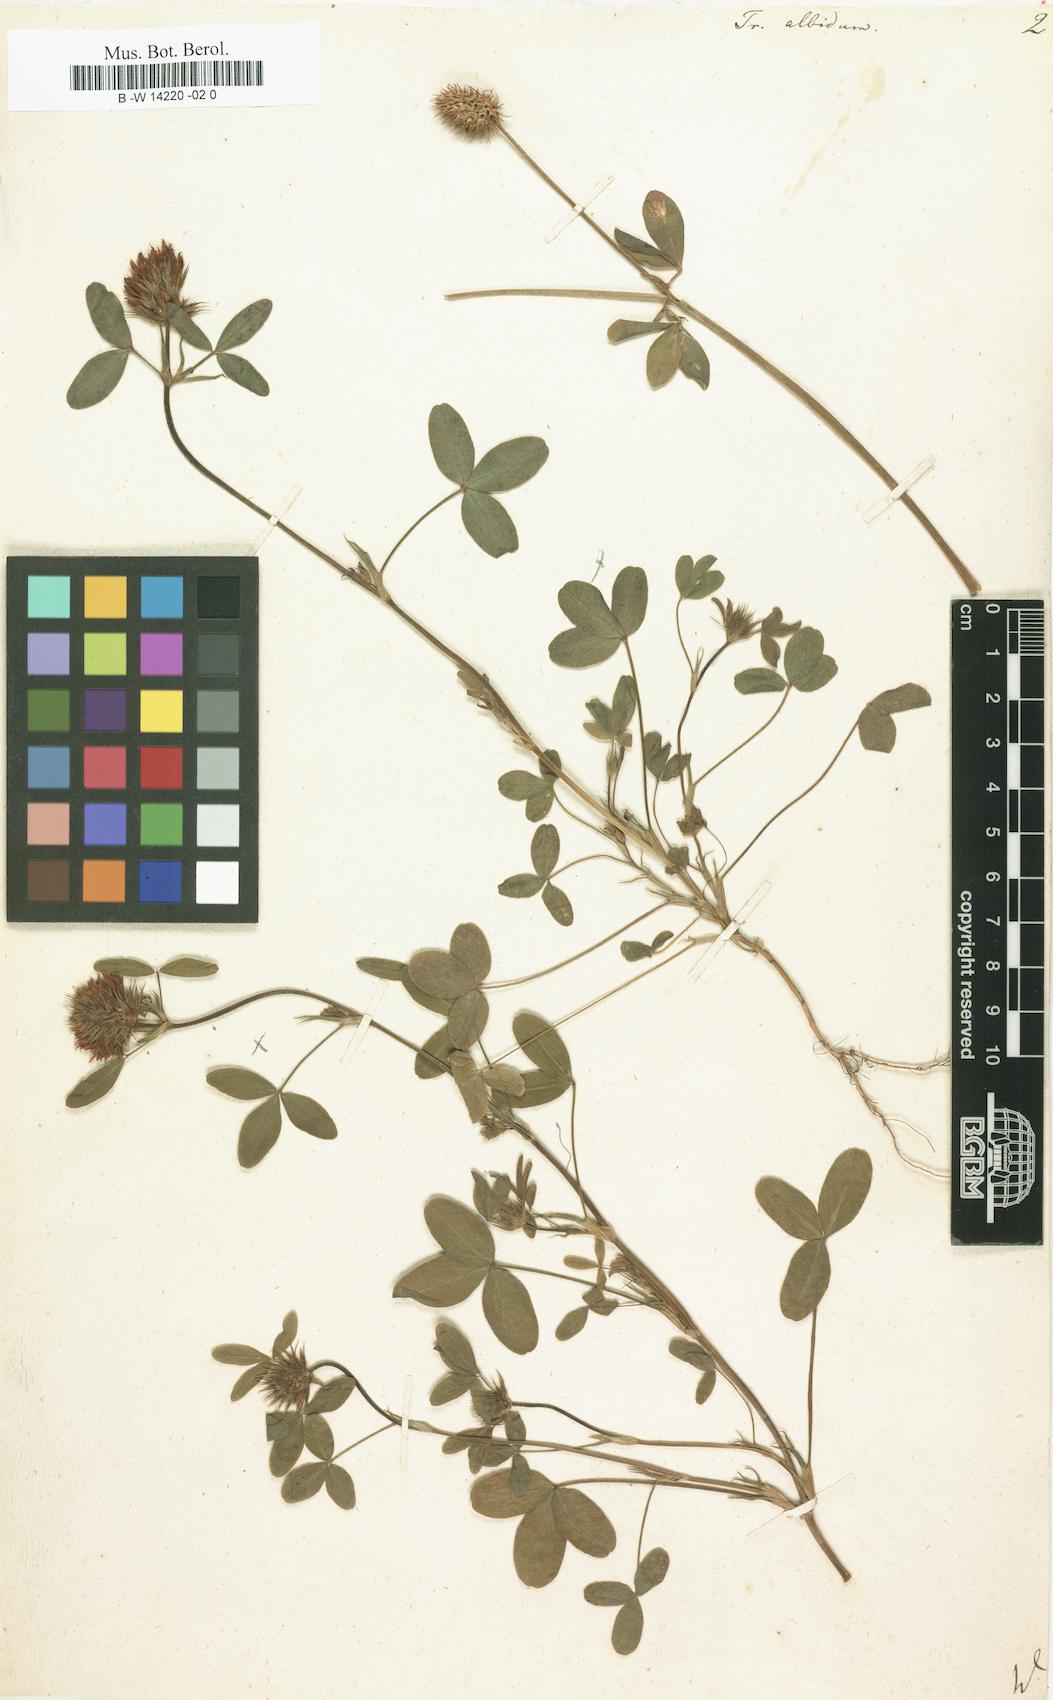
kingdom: Plantae
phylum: Tracheophyta
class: Magnoliopsida
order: Fabales
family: Fabaceae
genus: Trifolium
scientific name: Trifolium squamosum
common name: Sea clover
